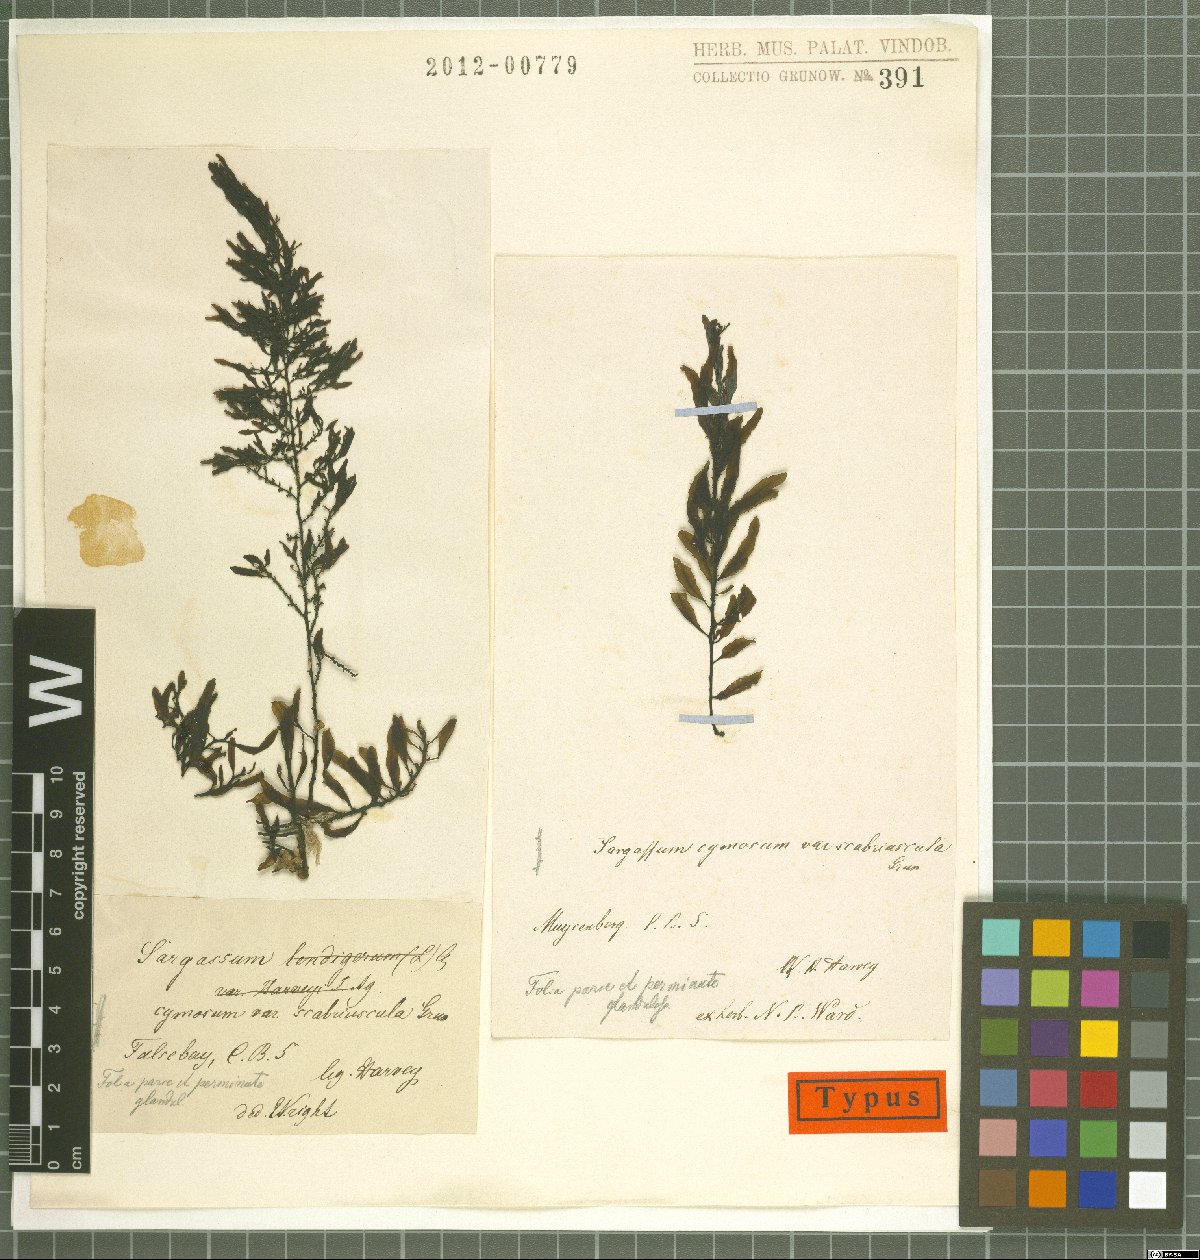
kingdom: Chromista
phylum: Ochrophyta
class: Phaeophyceae
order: Fucales
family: Sargassaceae
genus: Sargassum
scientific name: Sargassum cymosum
